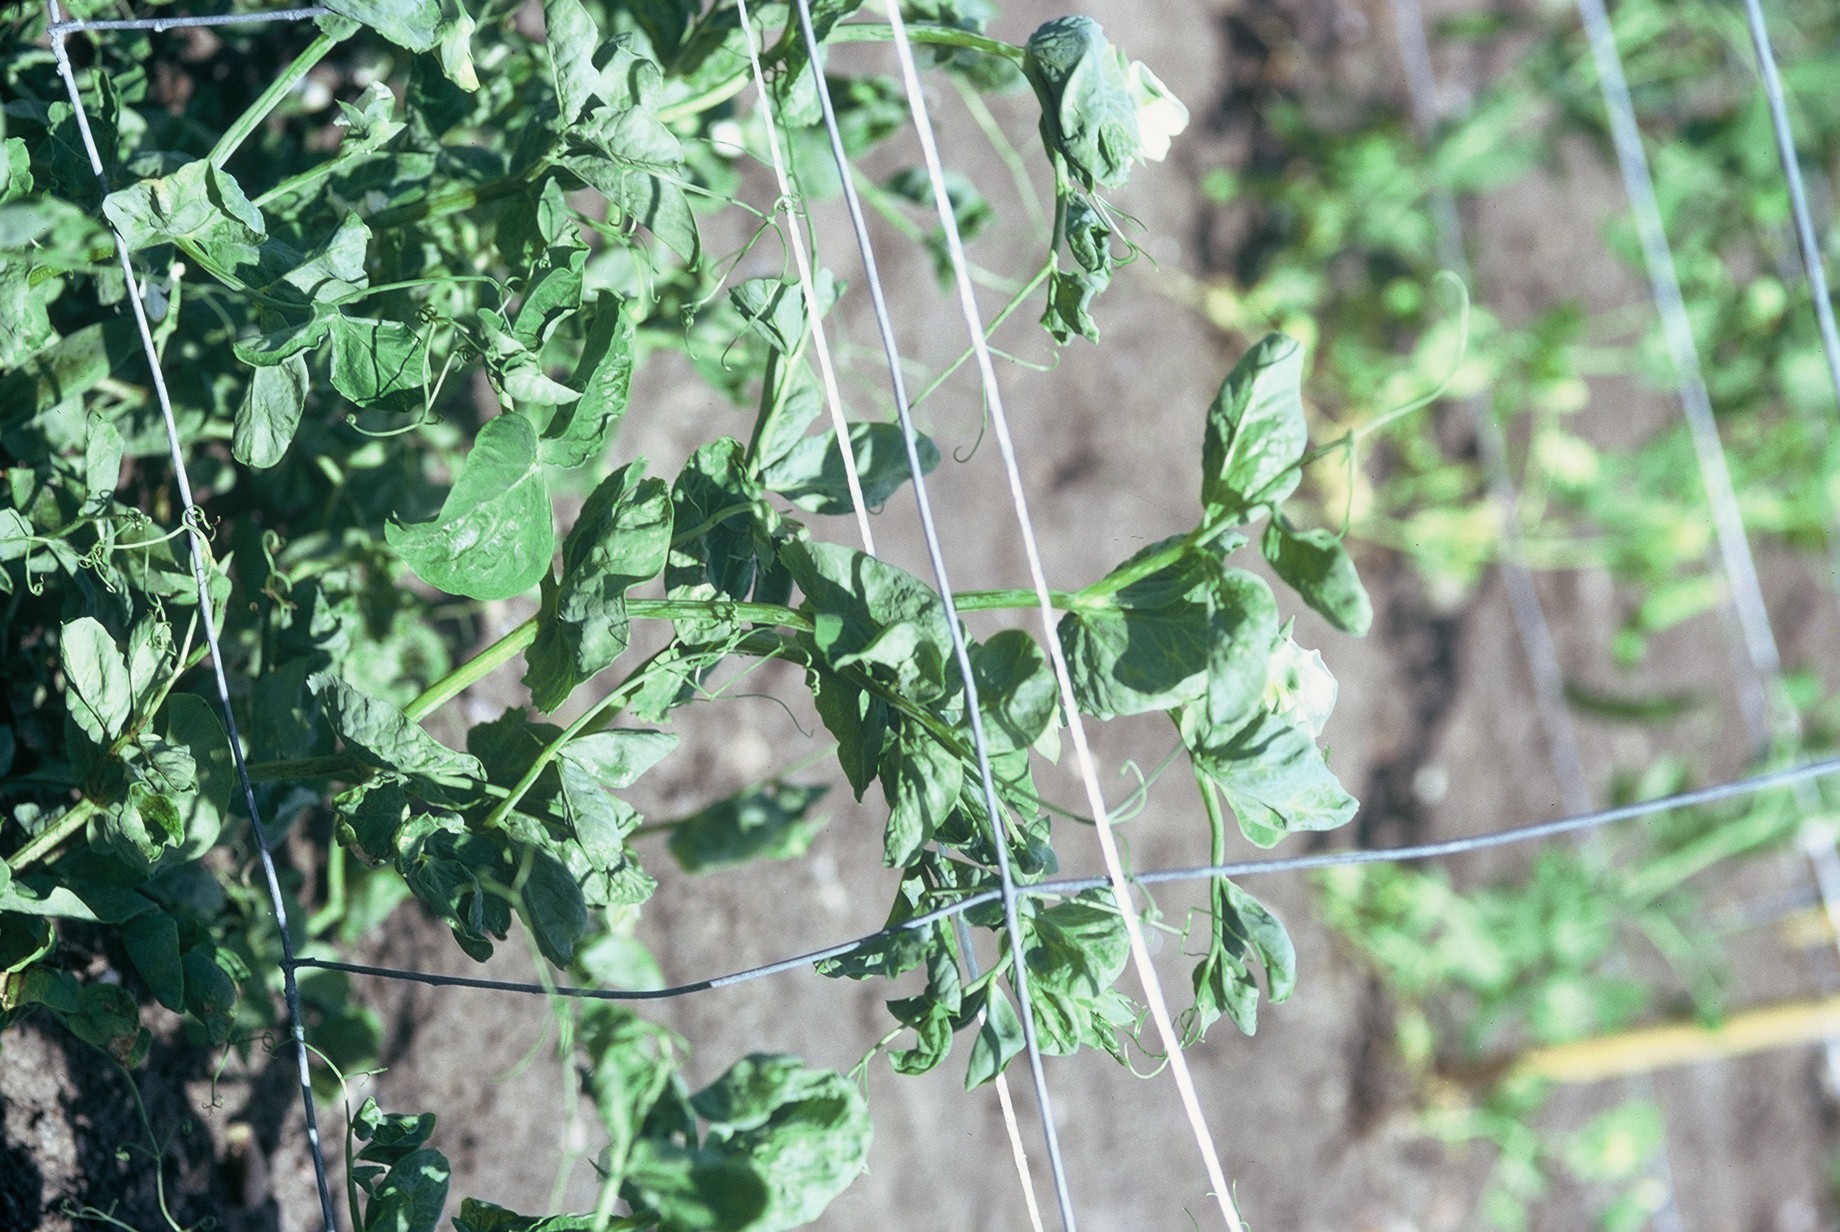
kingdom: Plantae
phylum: Tracheophyta
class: Magnoliopsida
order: Fabales
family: Fabaceae
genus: Lathyrus
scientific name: Lathyrus oleraceus
